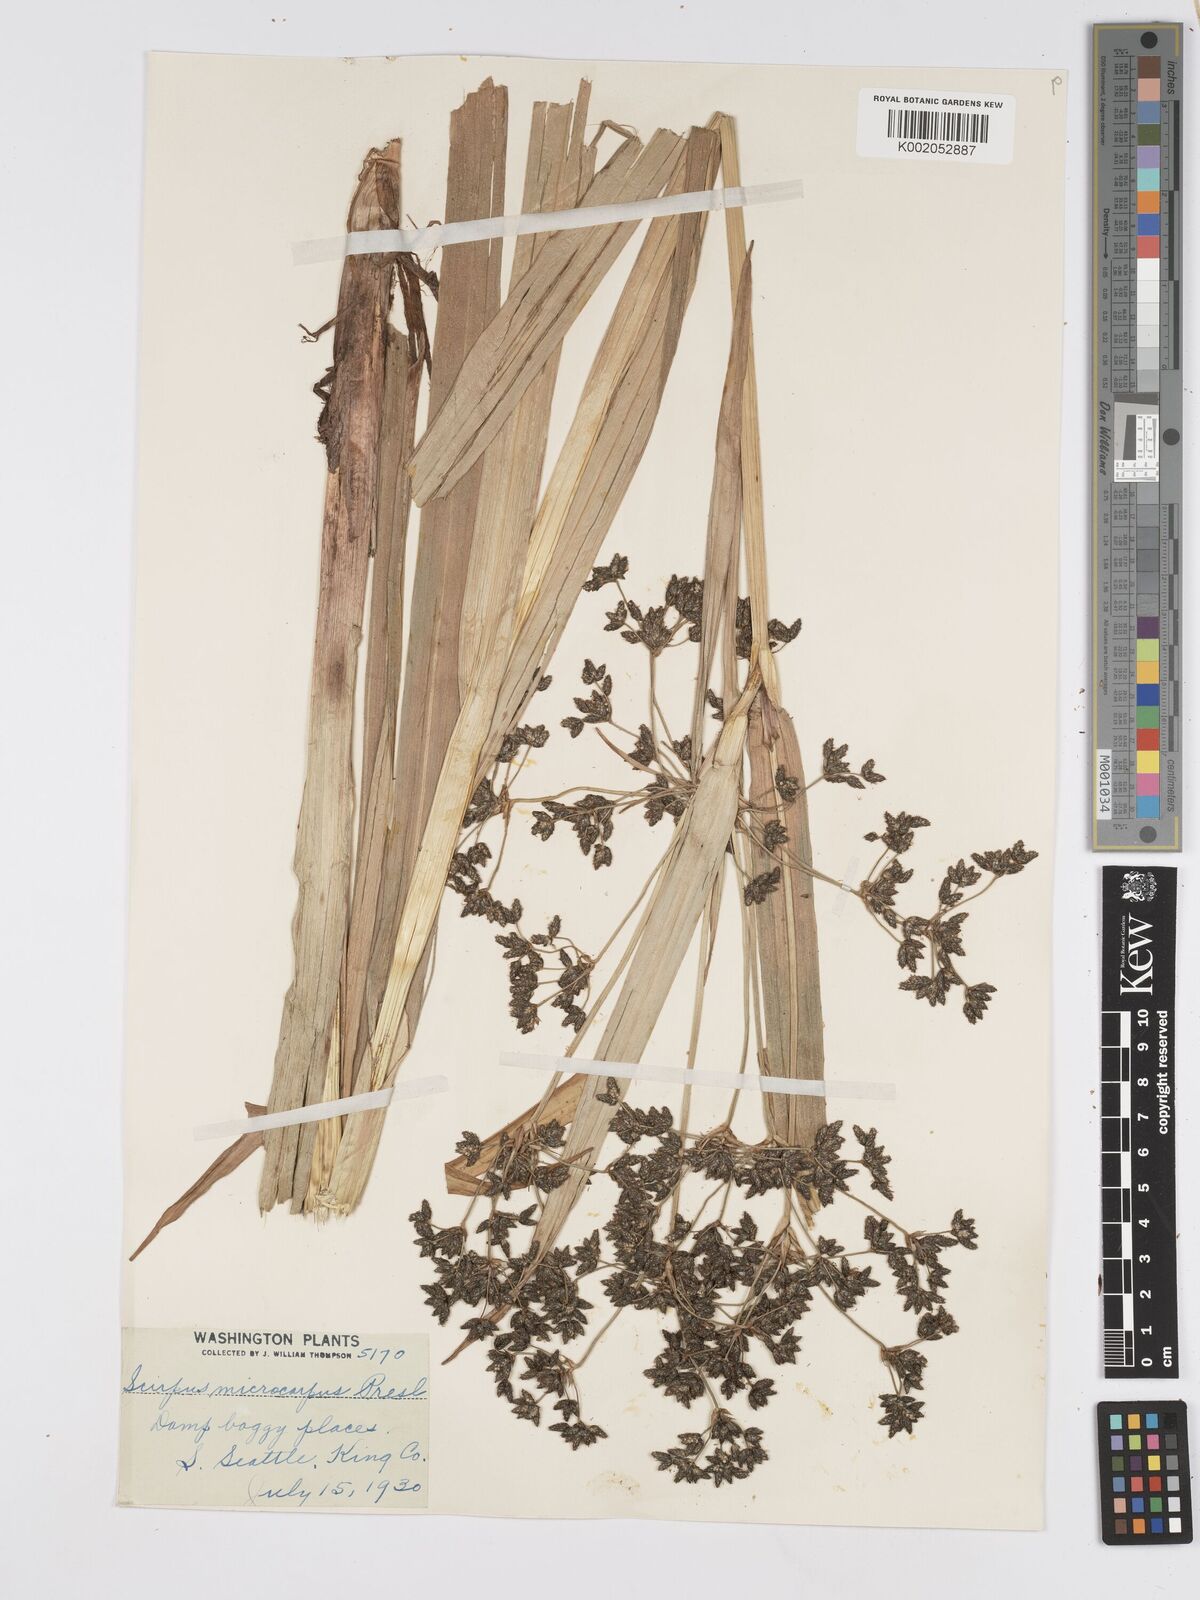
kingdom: Plantae
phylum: Tracheophyta
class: Liliopsida
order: Poales
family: Cyperaceae
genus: Scirpus
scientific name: Scirpus microcarpus
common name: Panicled bulrush
